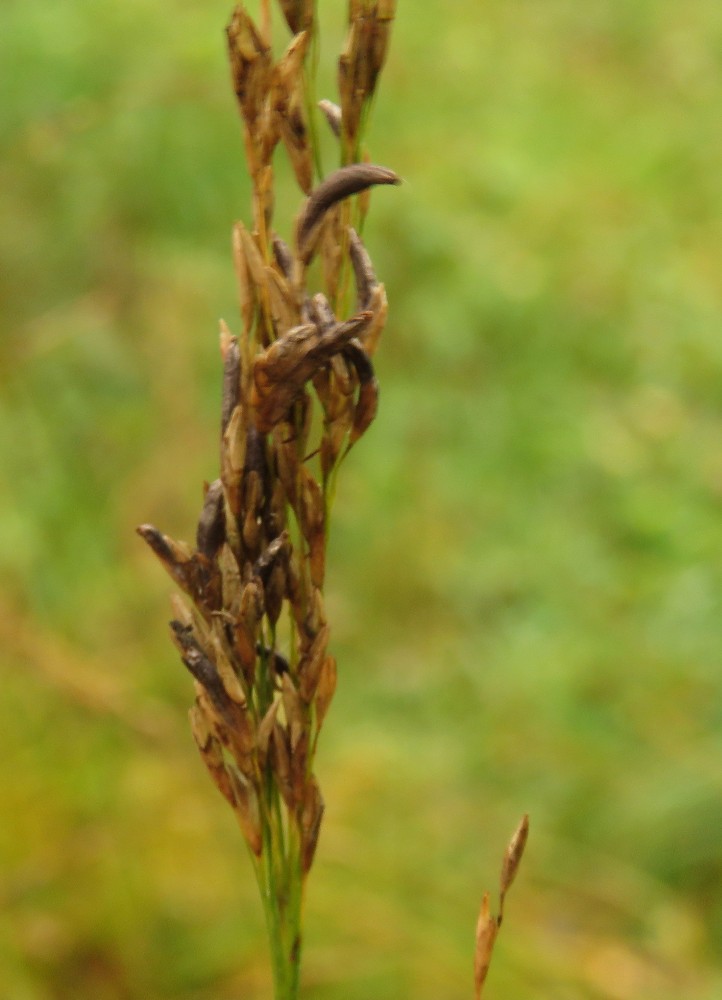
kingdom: Fungi
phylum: Ascomycota
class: Sordariomycetes
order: Hypocreales
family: Clavicipitaceae
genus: Claviceps
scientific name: Claviceps purpurea
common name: almindelig meldrøjer
